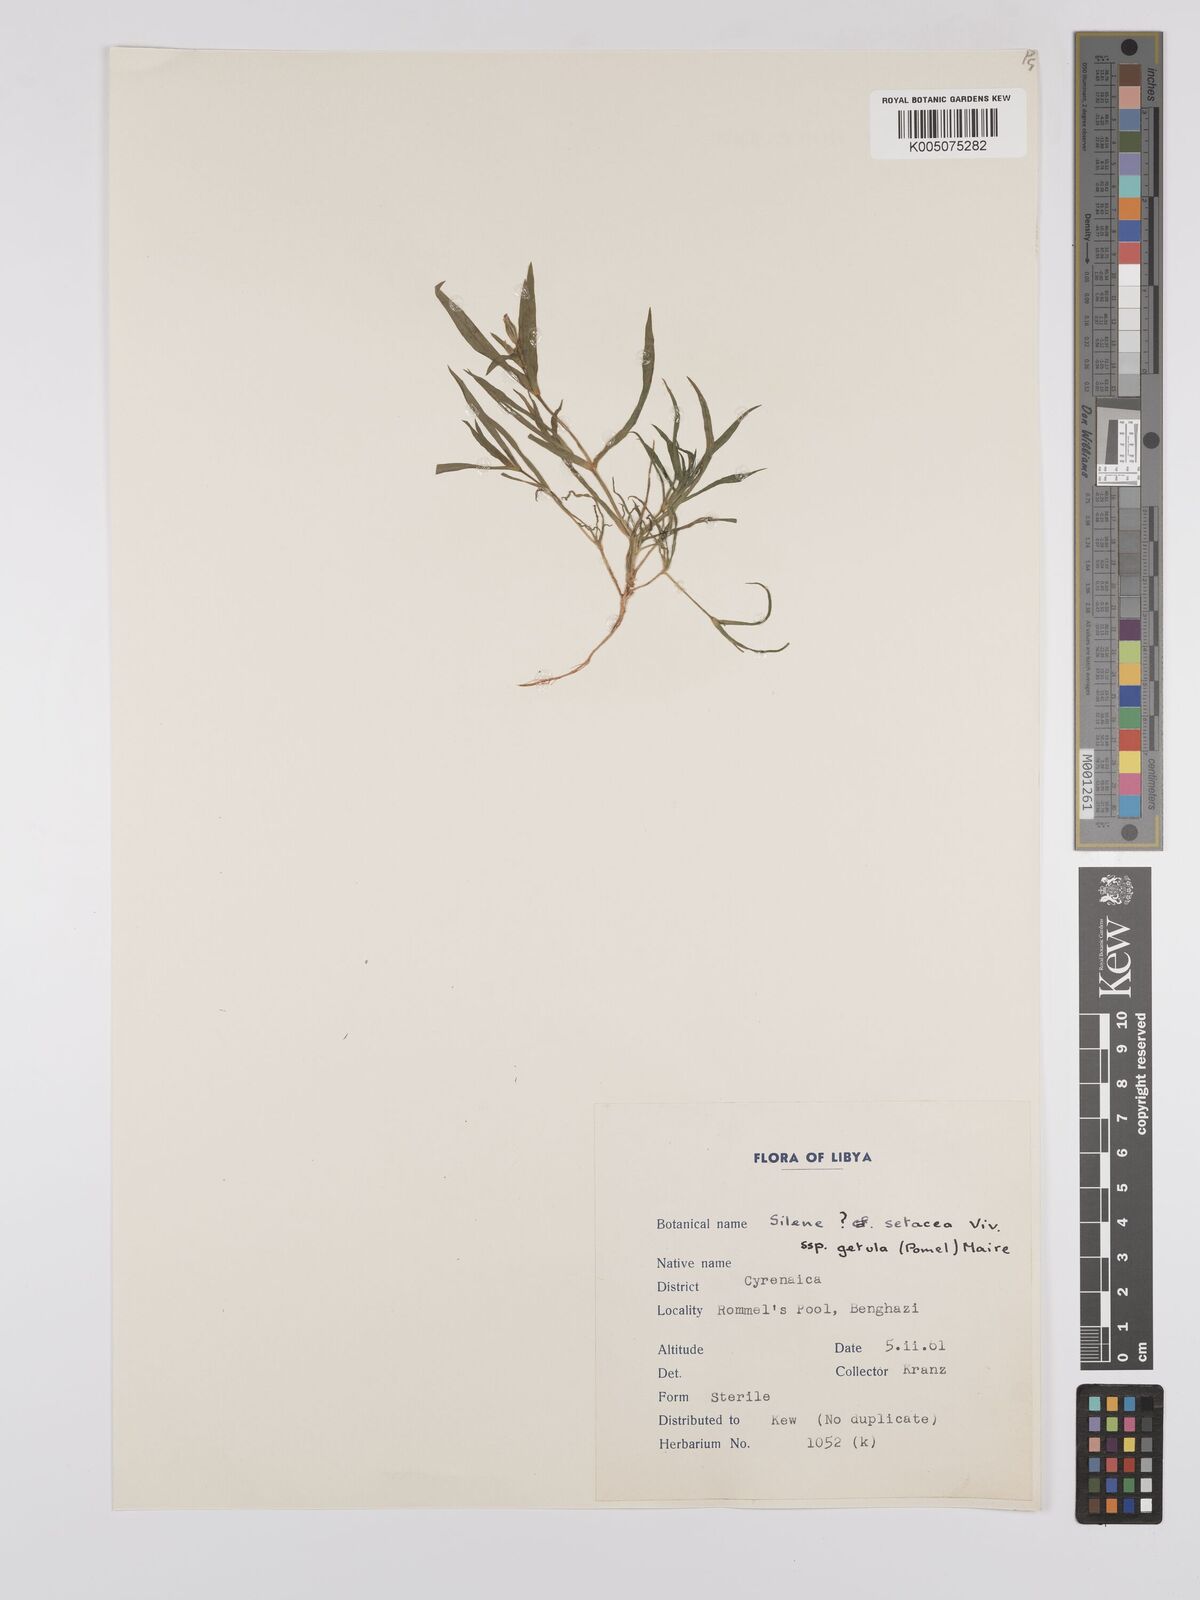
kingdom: Plantae
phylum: Tracheophyta
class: Magnoliopsida
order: Caryophyllales
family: Caryophyllaceae
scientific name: Caryophyllaceae
